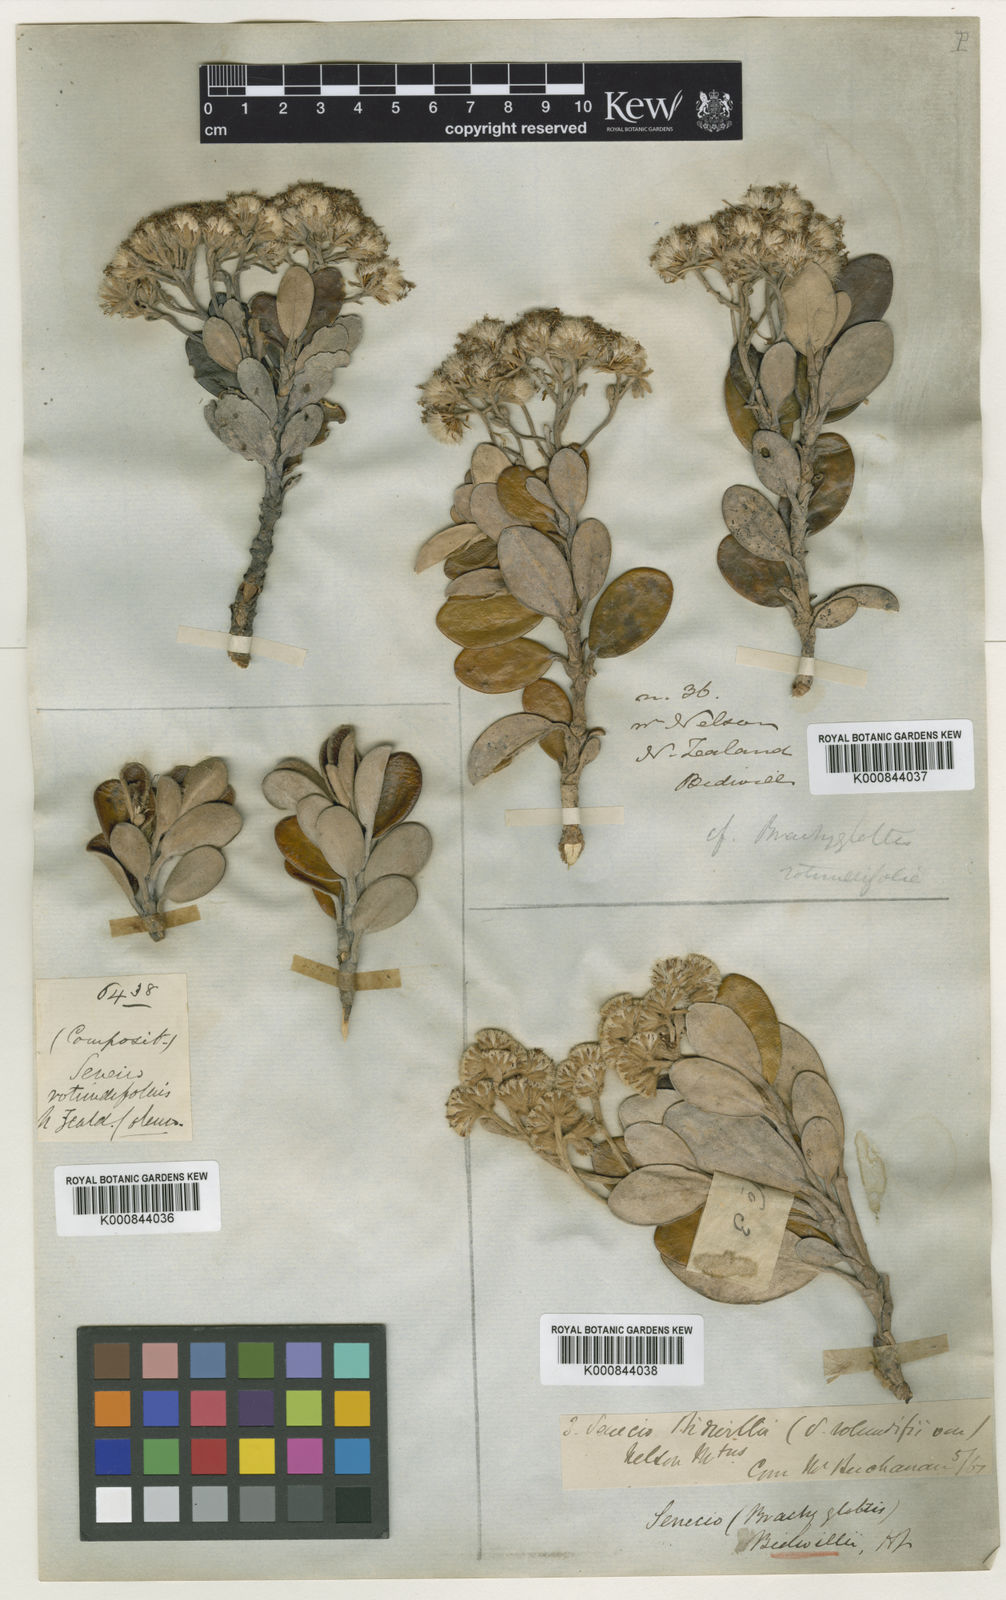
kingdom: Plantae
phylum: Tracheophyta
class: Magnoliopsida
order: Asterales
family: Asteraceae
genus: Brachyglottis
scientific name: Brachyglottis
